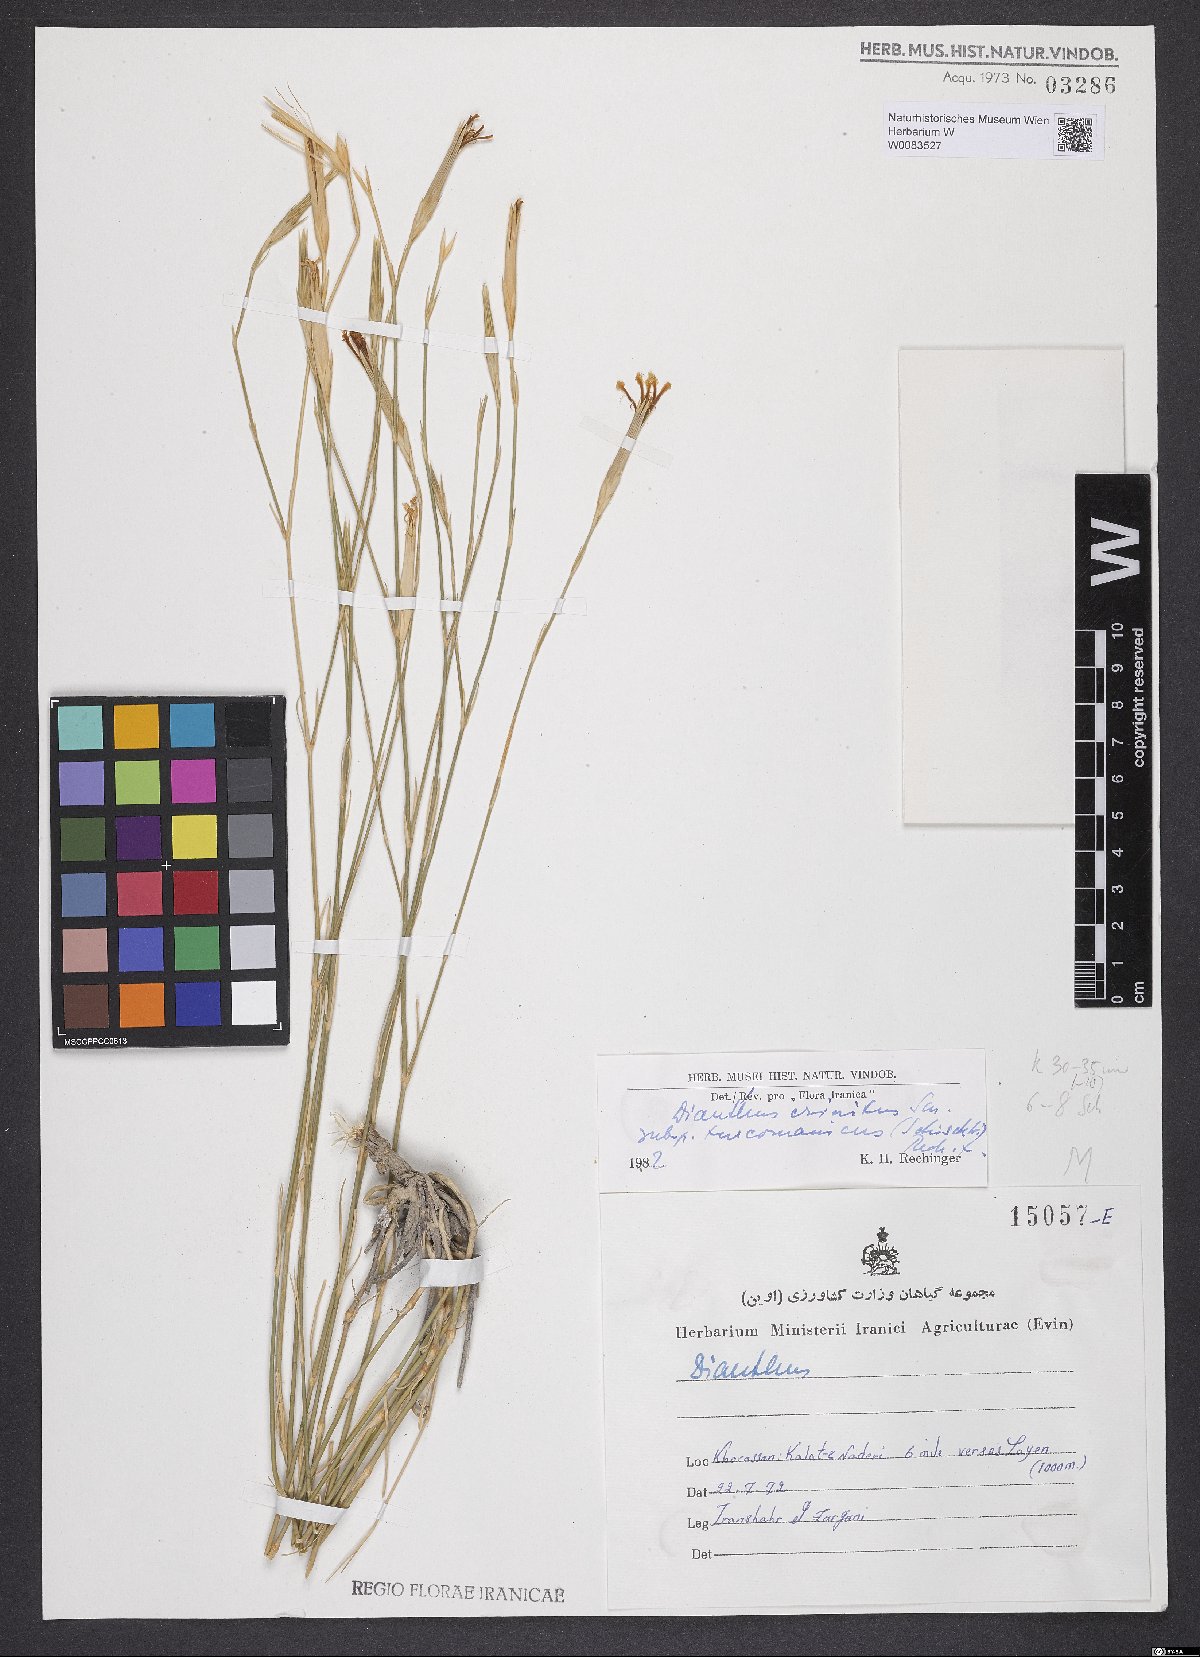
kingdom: Plantae
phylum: Tracheophyta
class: Magnoliopsida
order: Caryophyllales
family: Caryophyllaceae
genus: Dianthus
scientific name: Dianthus turkestanicus
